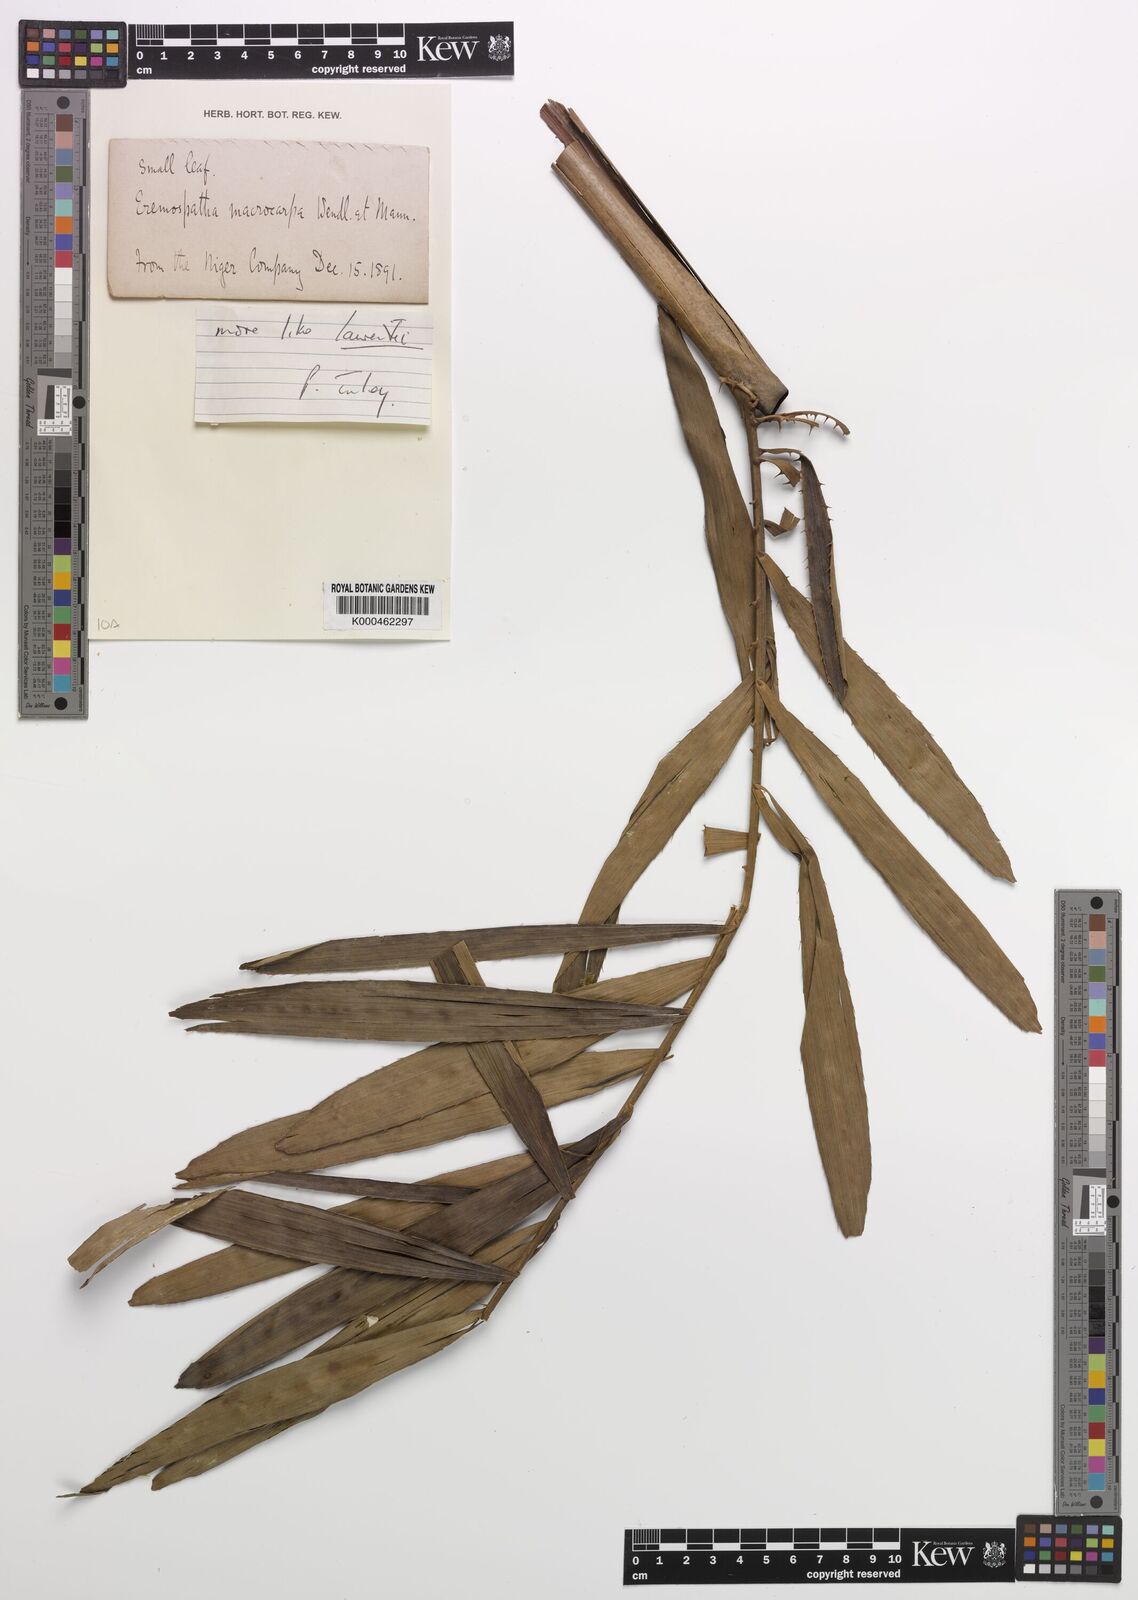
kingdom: Plantae
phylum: Tracheophyta
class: Liliopsida
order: Arecales
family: Arecaceae
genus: Eremospatha
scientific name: Eremospatha
